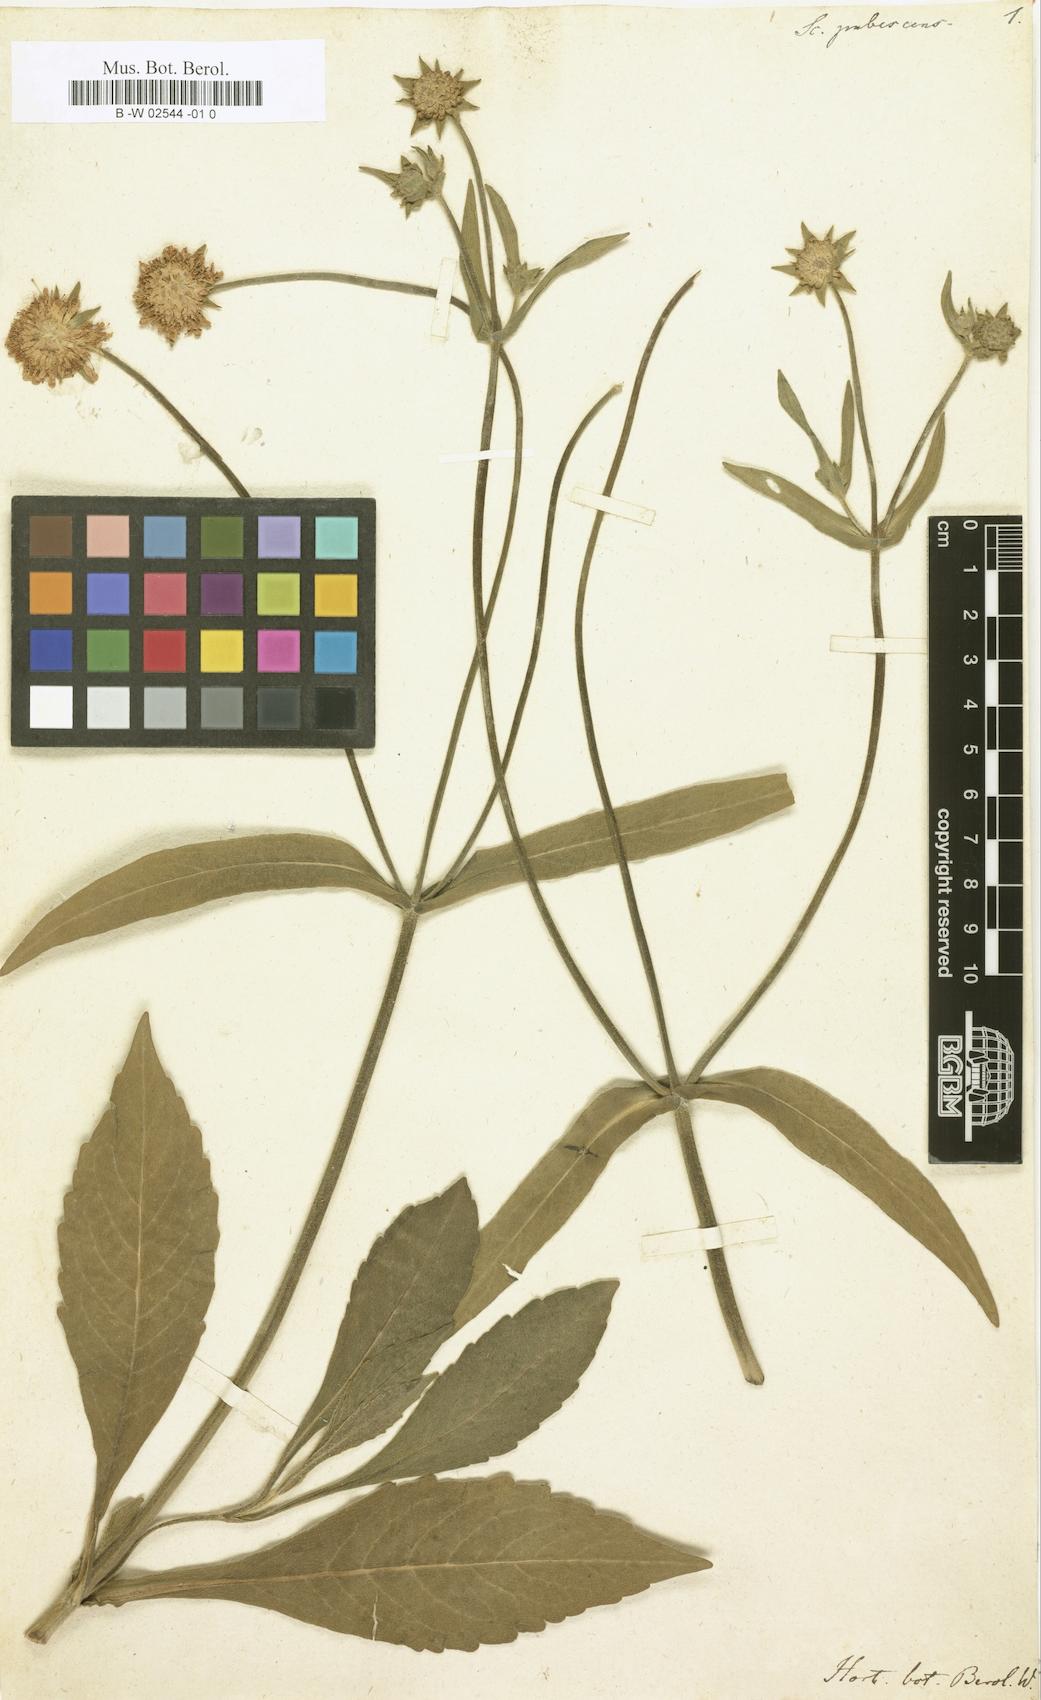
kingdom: Plantae
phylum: Tracheophyta
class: Magnoliopsida
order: Dipsacales
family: Caprifoliaceae
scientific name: Caprifoliaceae
